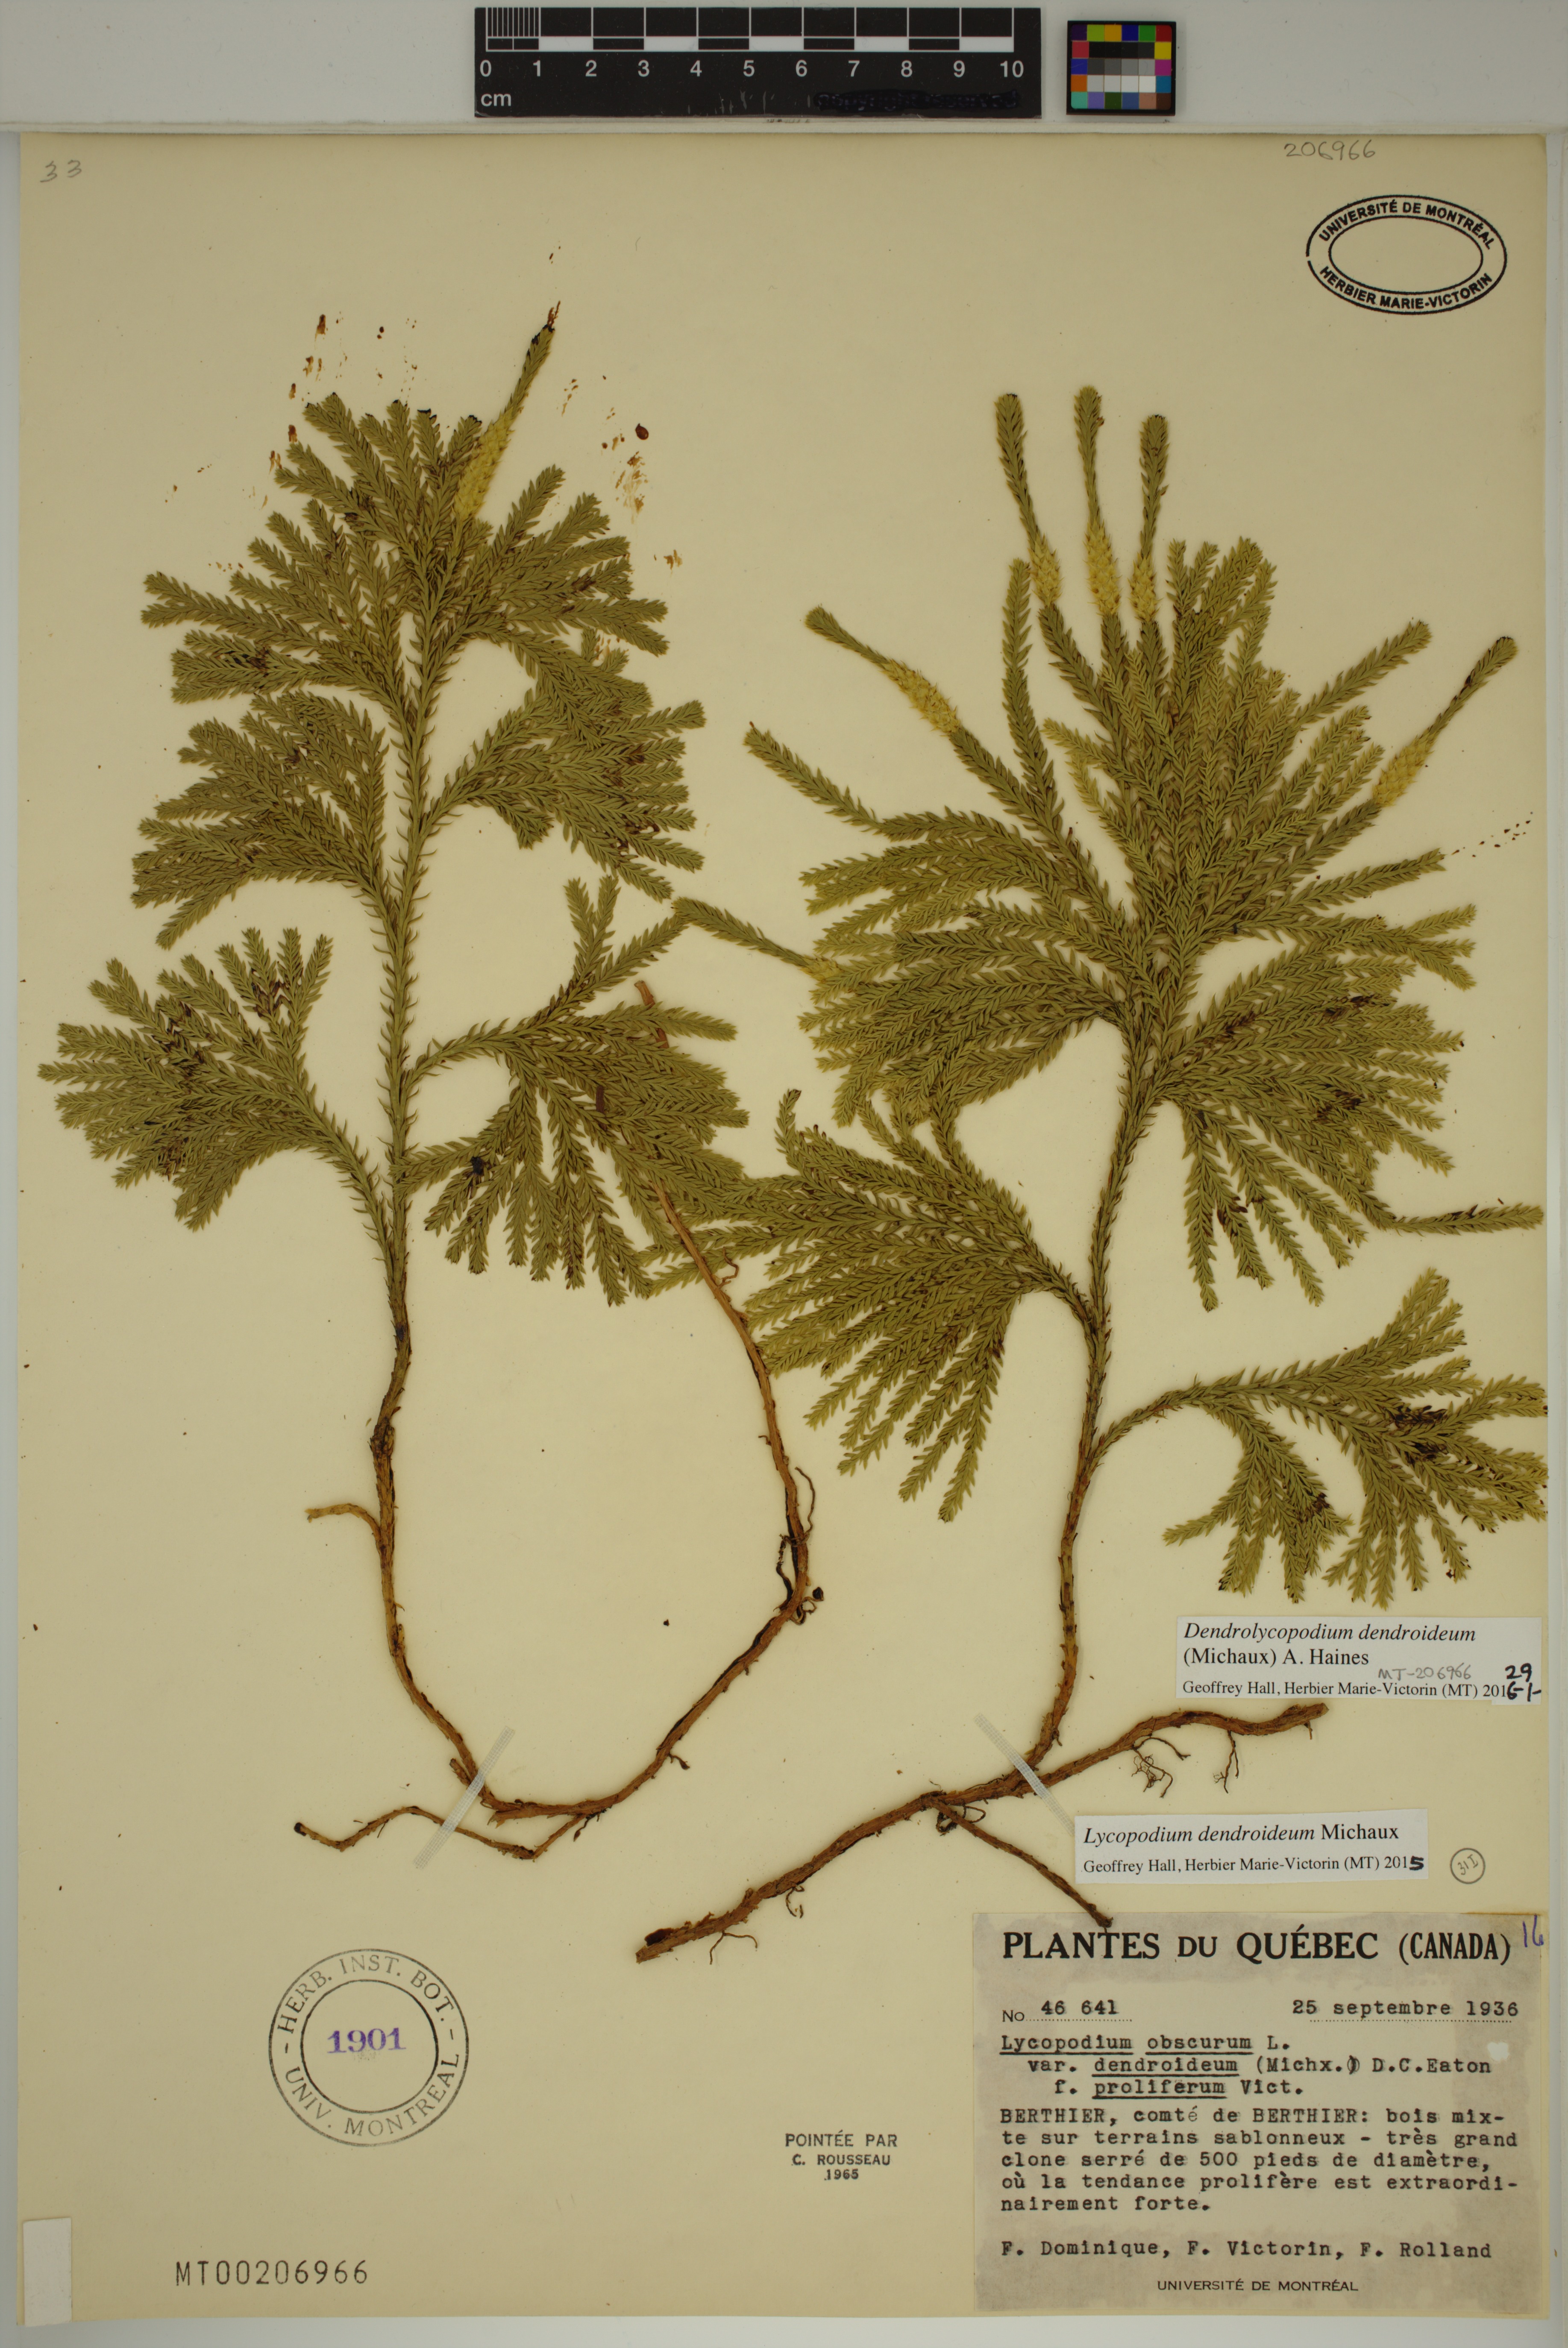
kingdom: Plantae
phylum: Tracheophyta
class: Lycopodiopsida
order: Lycopodiales
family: Lycopodiaceae
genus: Dendrolycopodium
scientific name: Dendrolycopodium dendroideum
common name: Northern tree-clubmoss
